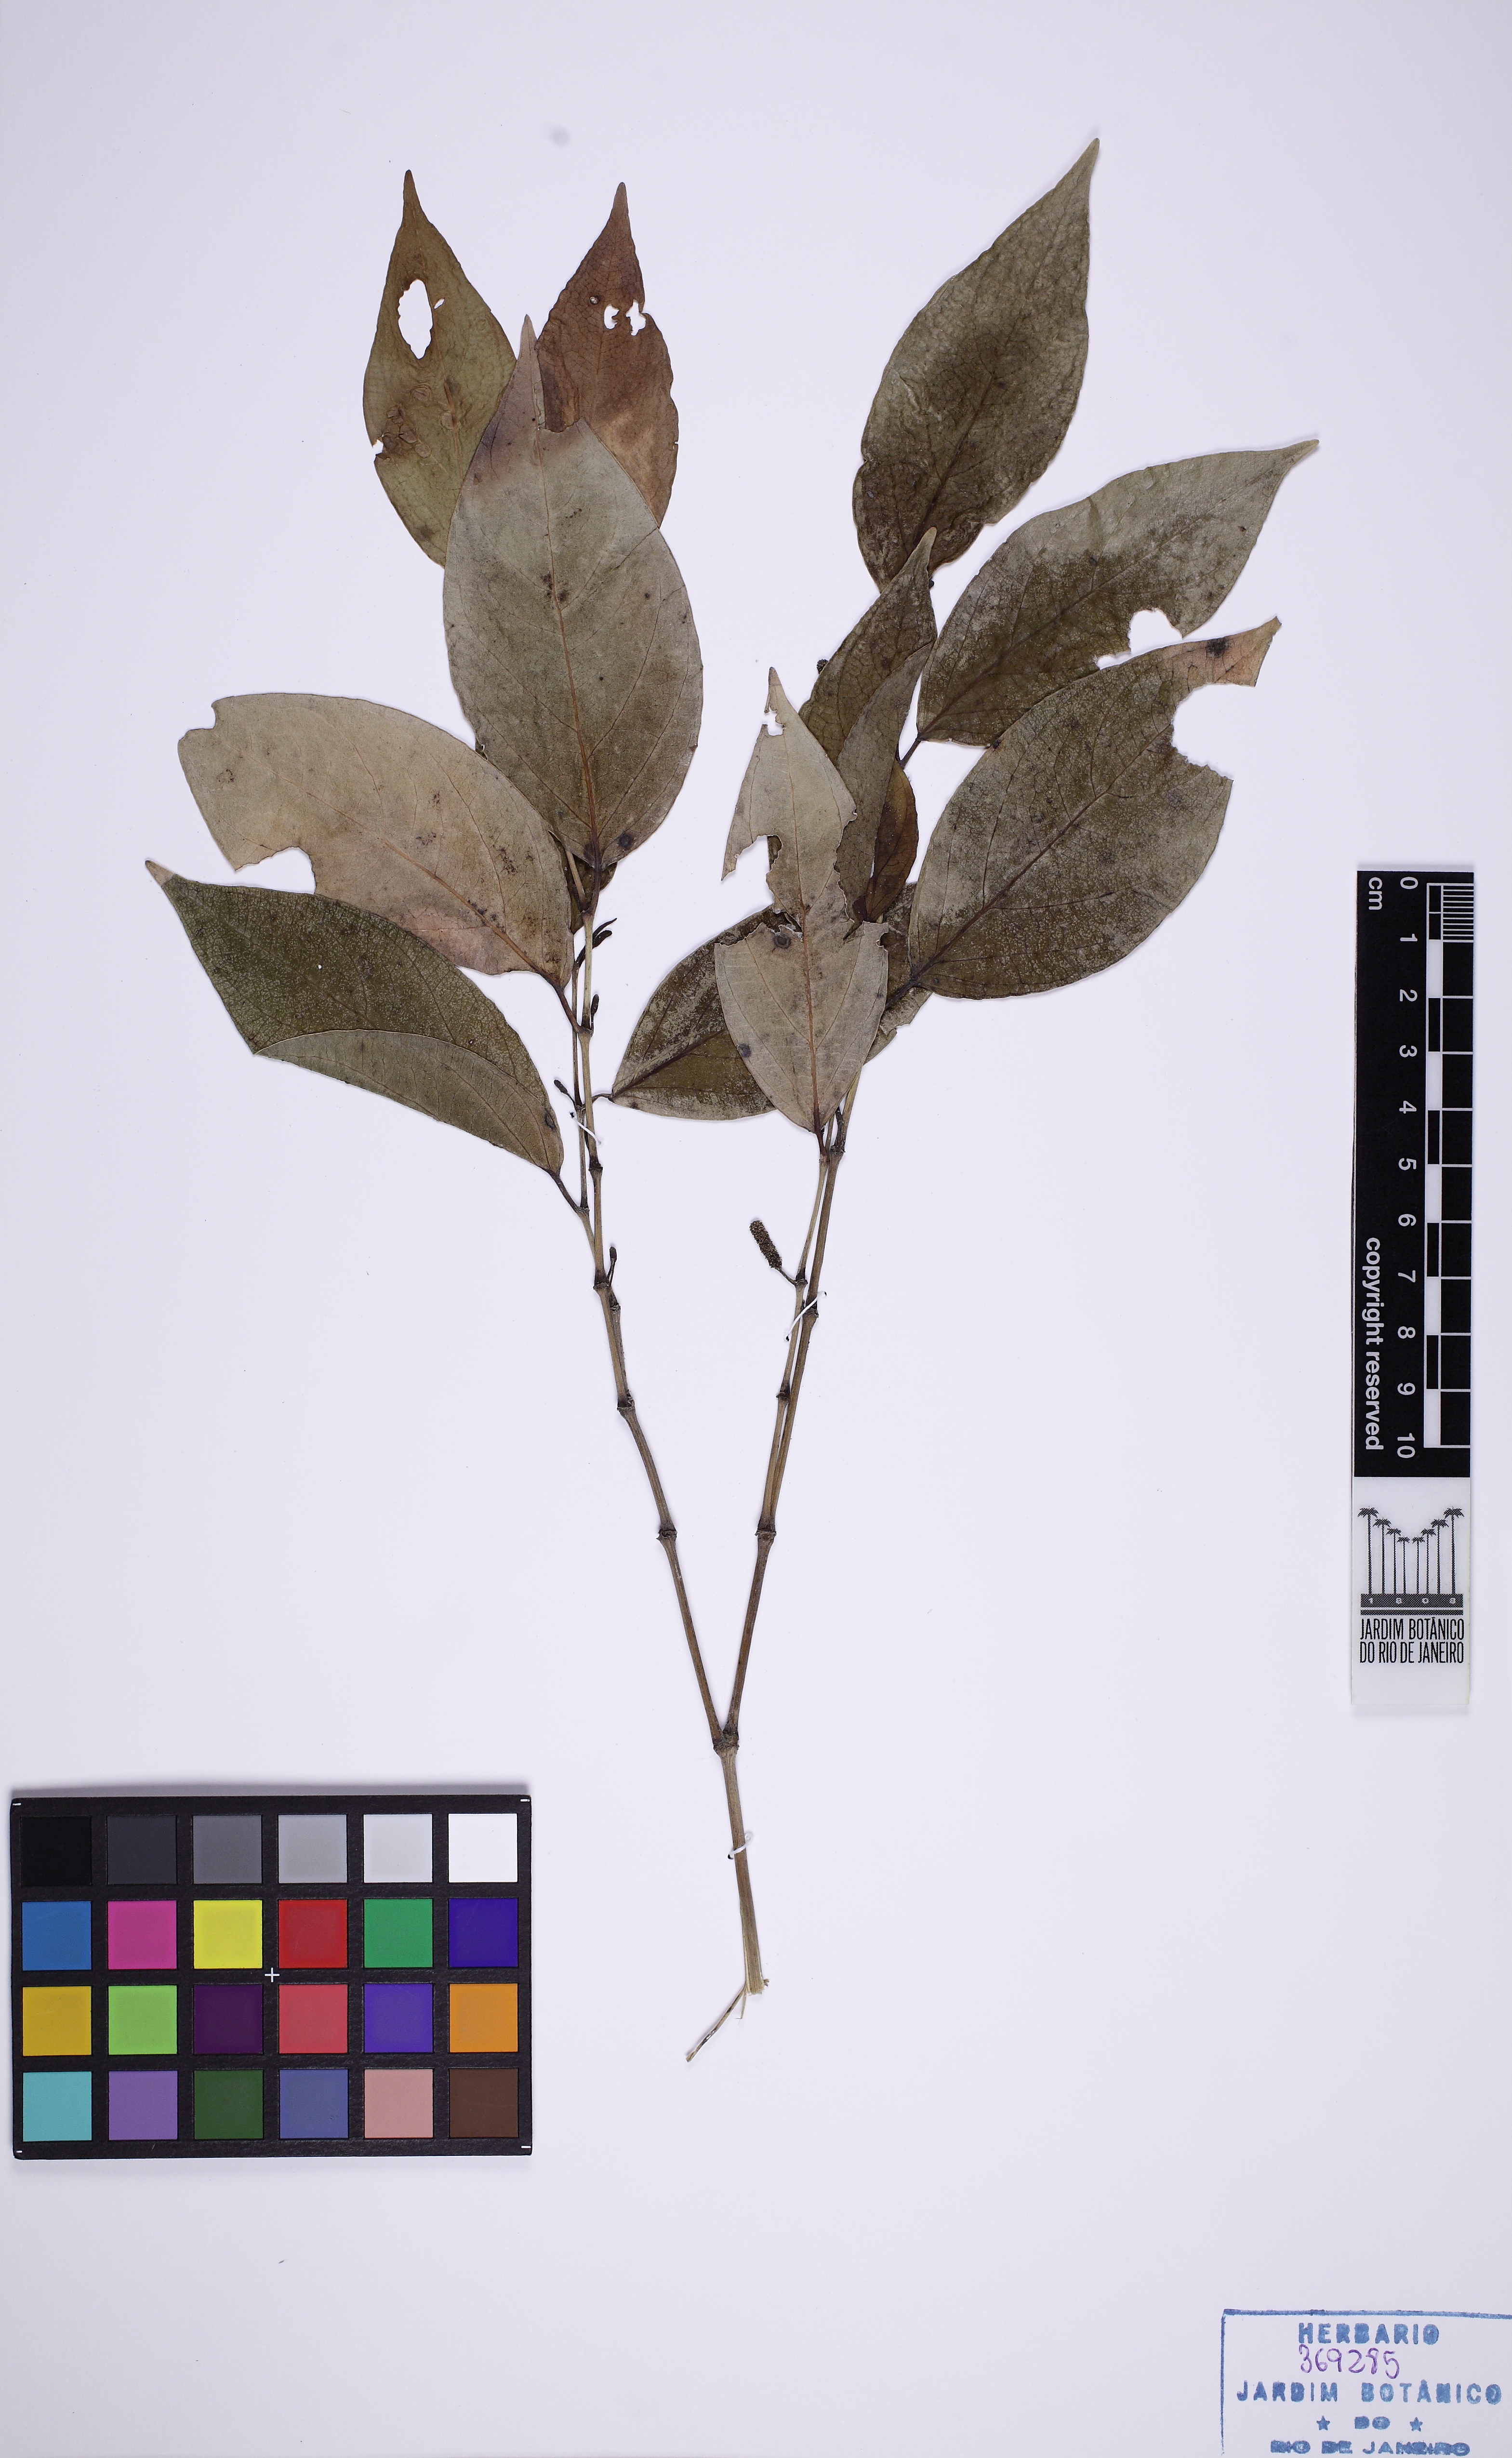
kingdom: Plantae
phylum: Tracheophyta
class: Magnoliopsida
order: Piperales
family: Piperaceae
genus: Piper
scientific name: Piper callosum
